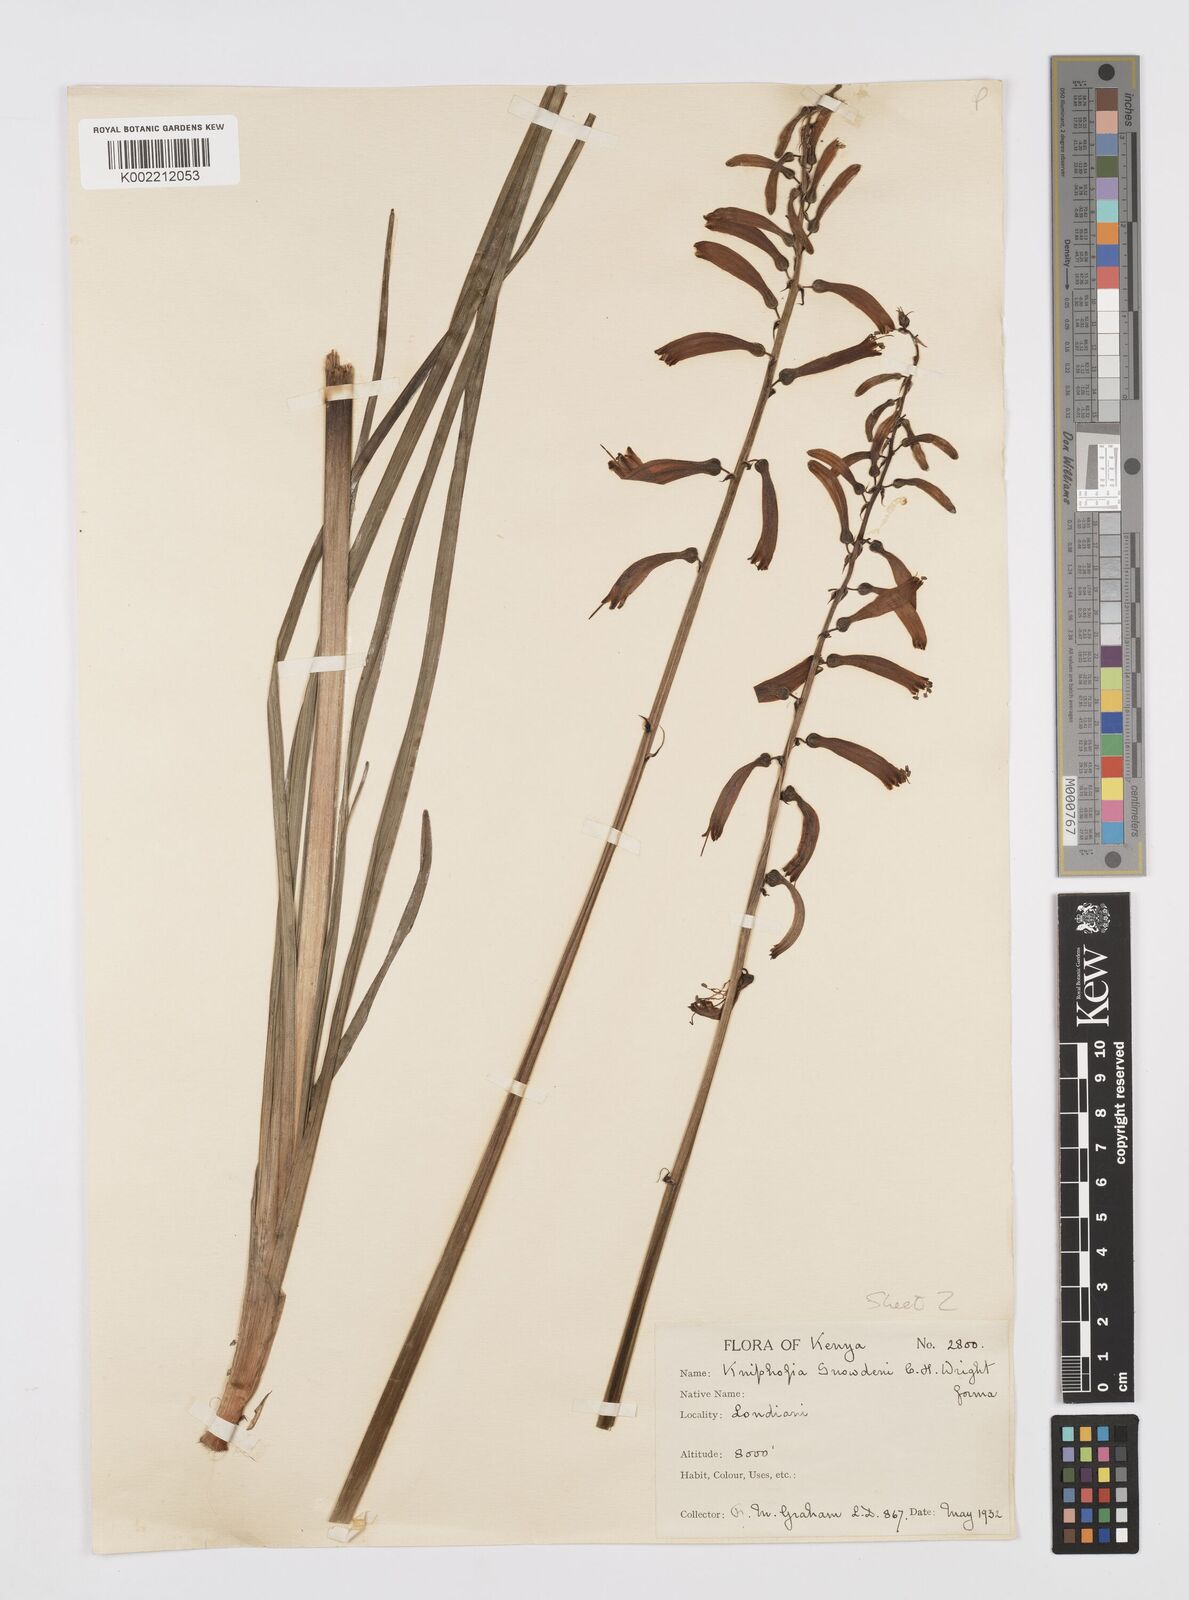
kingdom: Plantae
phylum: Tracheophyta
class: Liliopsida
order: Asparagales
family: Asphodelaceae
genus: Kniphofia
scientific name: Kniphofia
